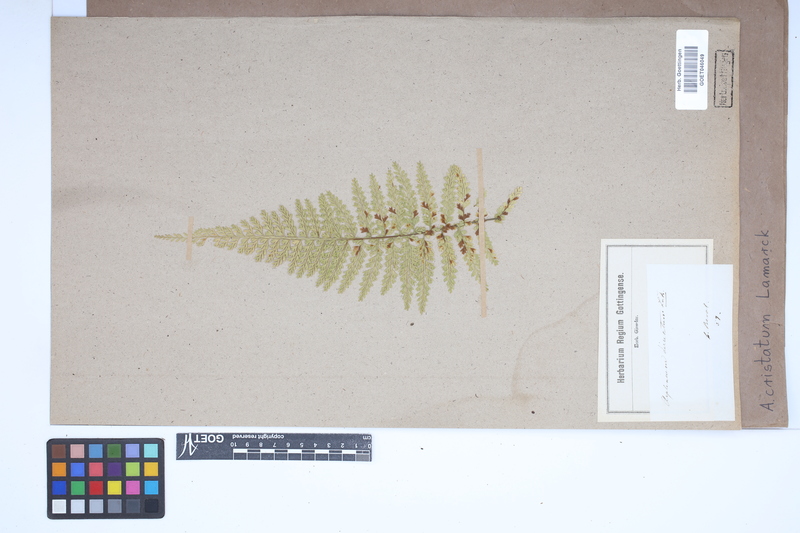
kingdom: Plantae
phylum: Tracheophyta
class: Polypodiopsida
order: Polypodiales
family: Aspleniaceae
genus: Asplenium
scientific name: Asplenium cristatum
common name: Parsley spleenwort
